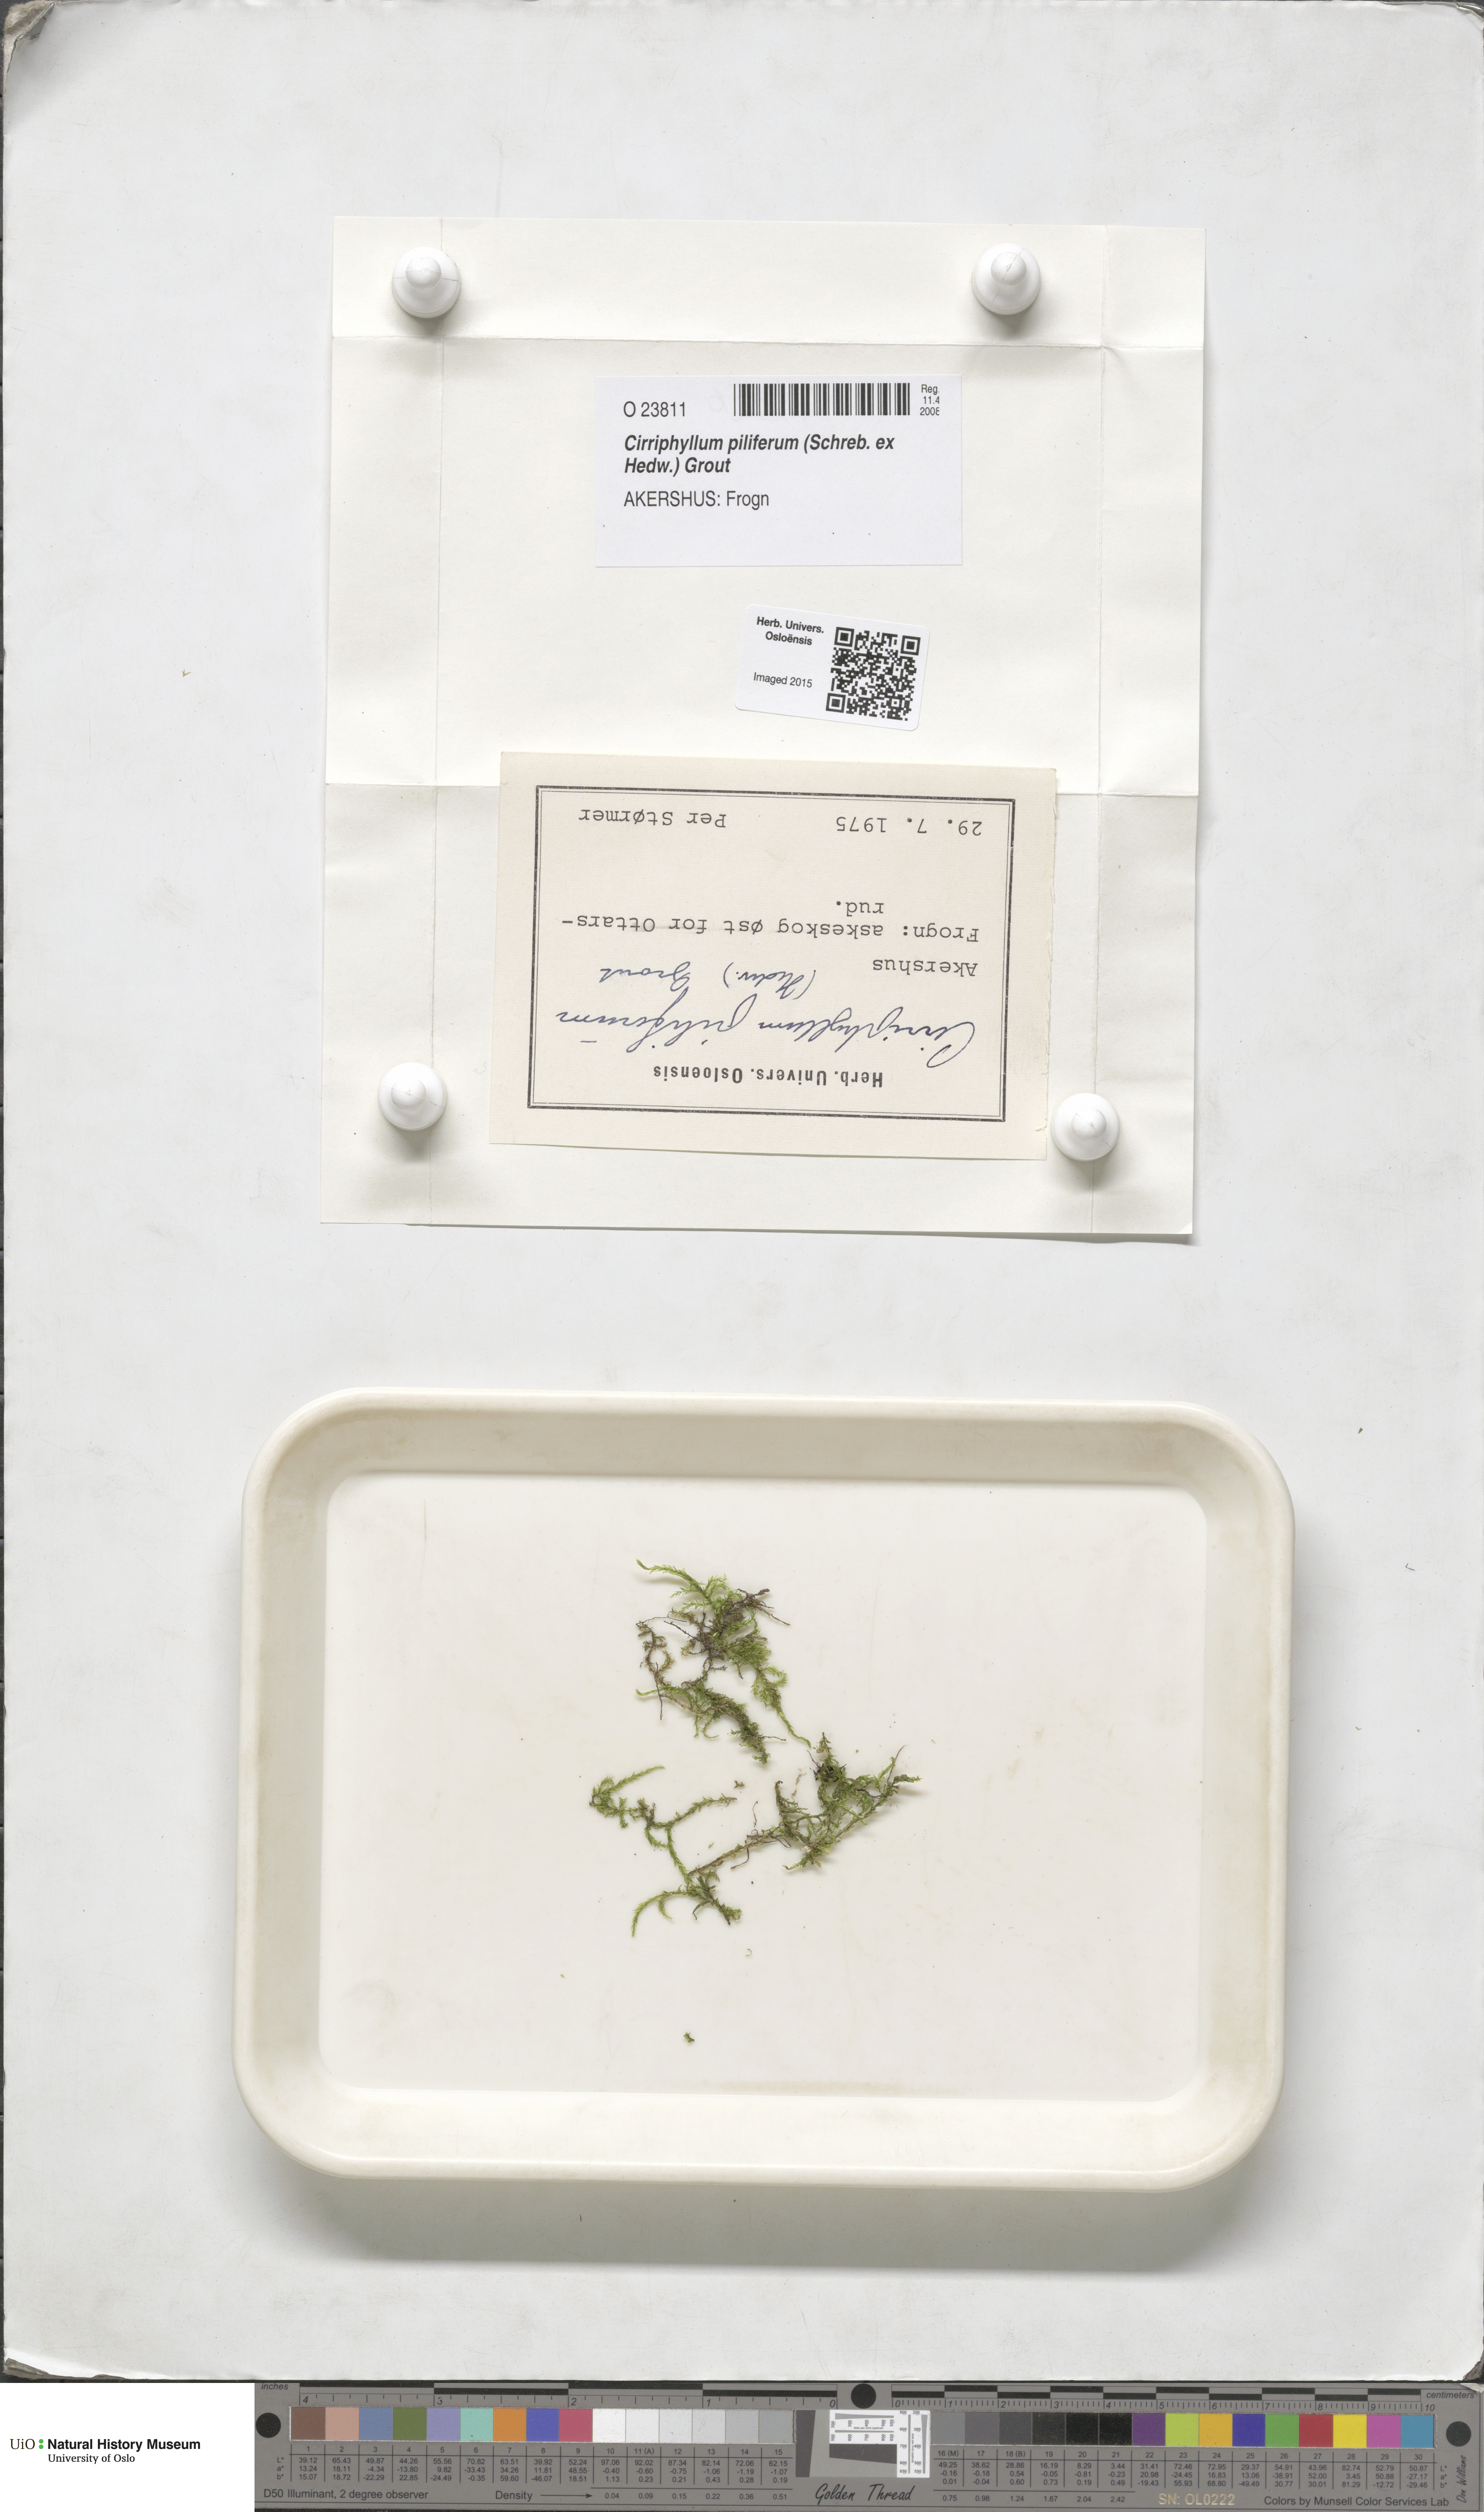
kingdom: Plantae
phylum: Bryophyta
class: Bryopsida
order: Hypnales
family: Brachytheciaceae
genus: Cirriphyllum
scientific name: Cirriphyllum piliferum
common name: Hair-pointed moss
